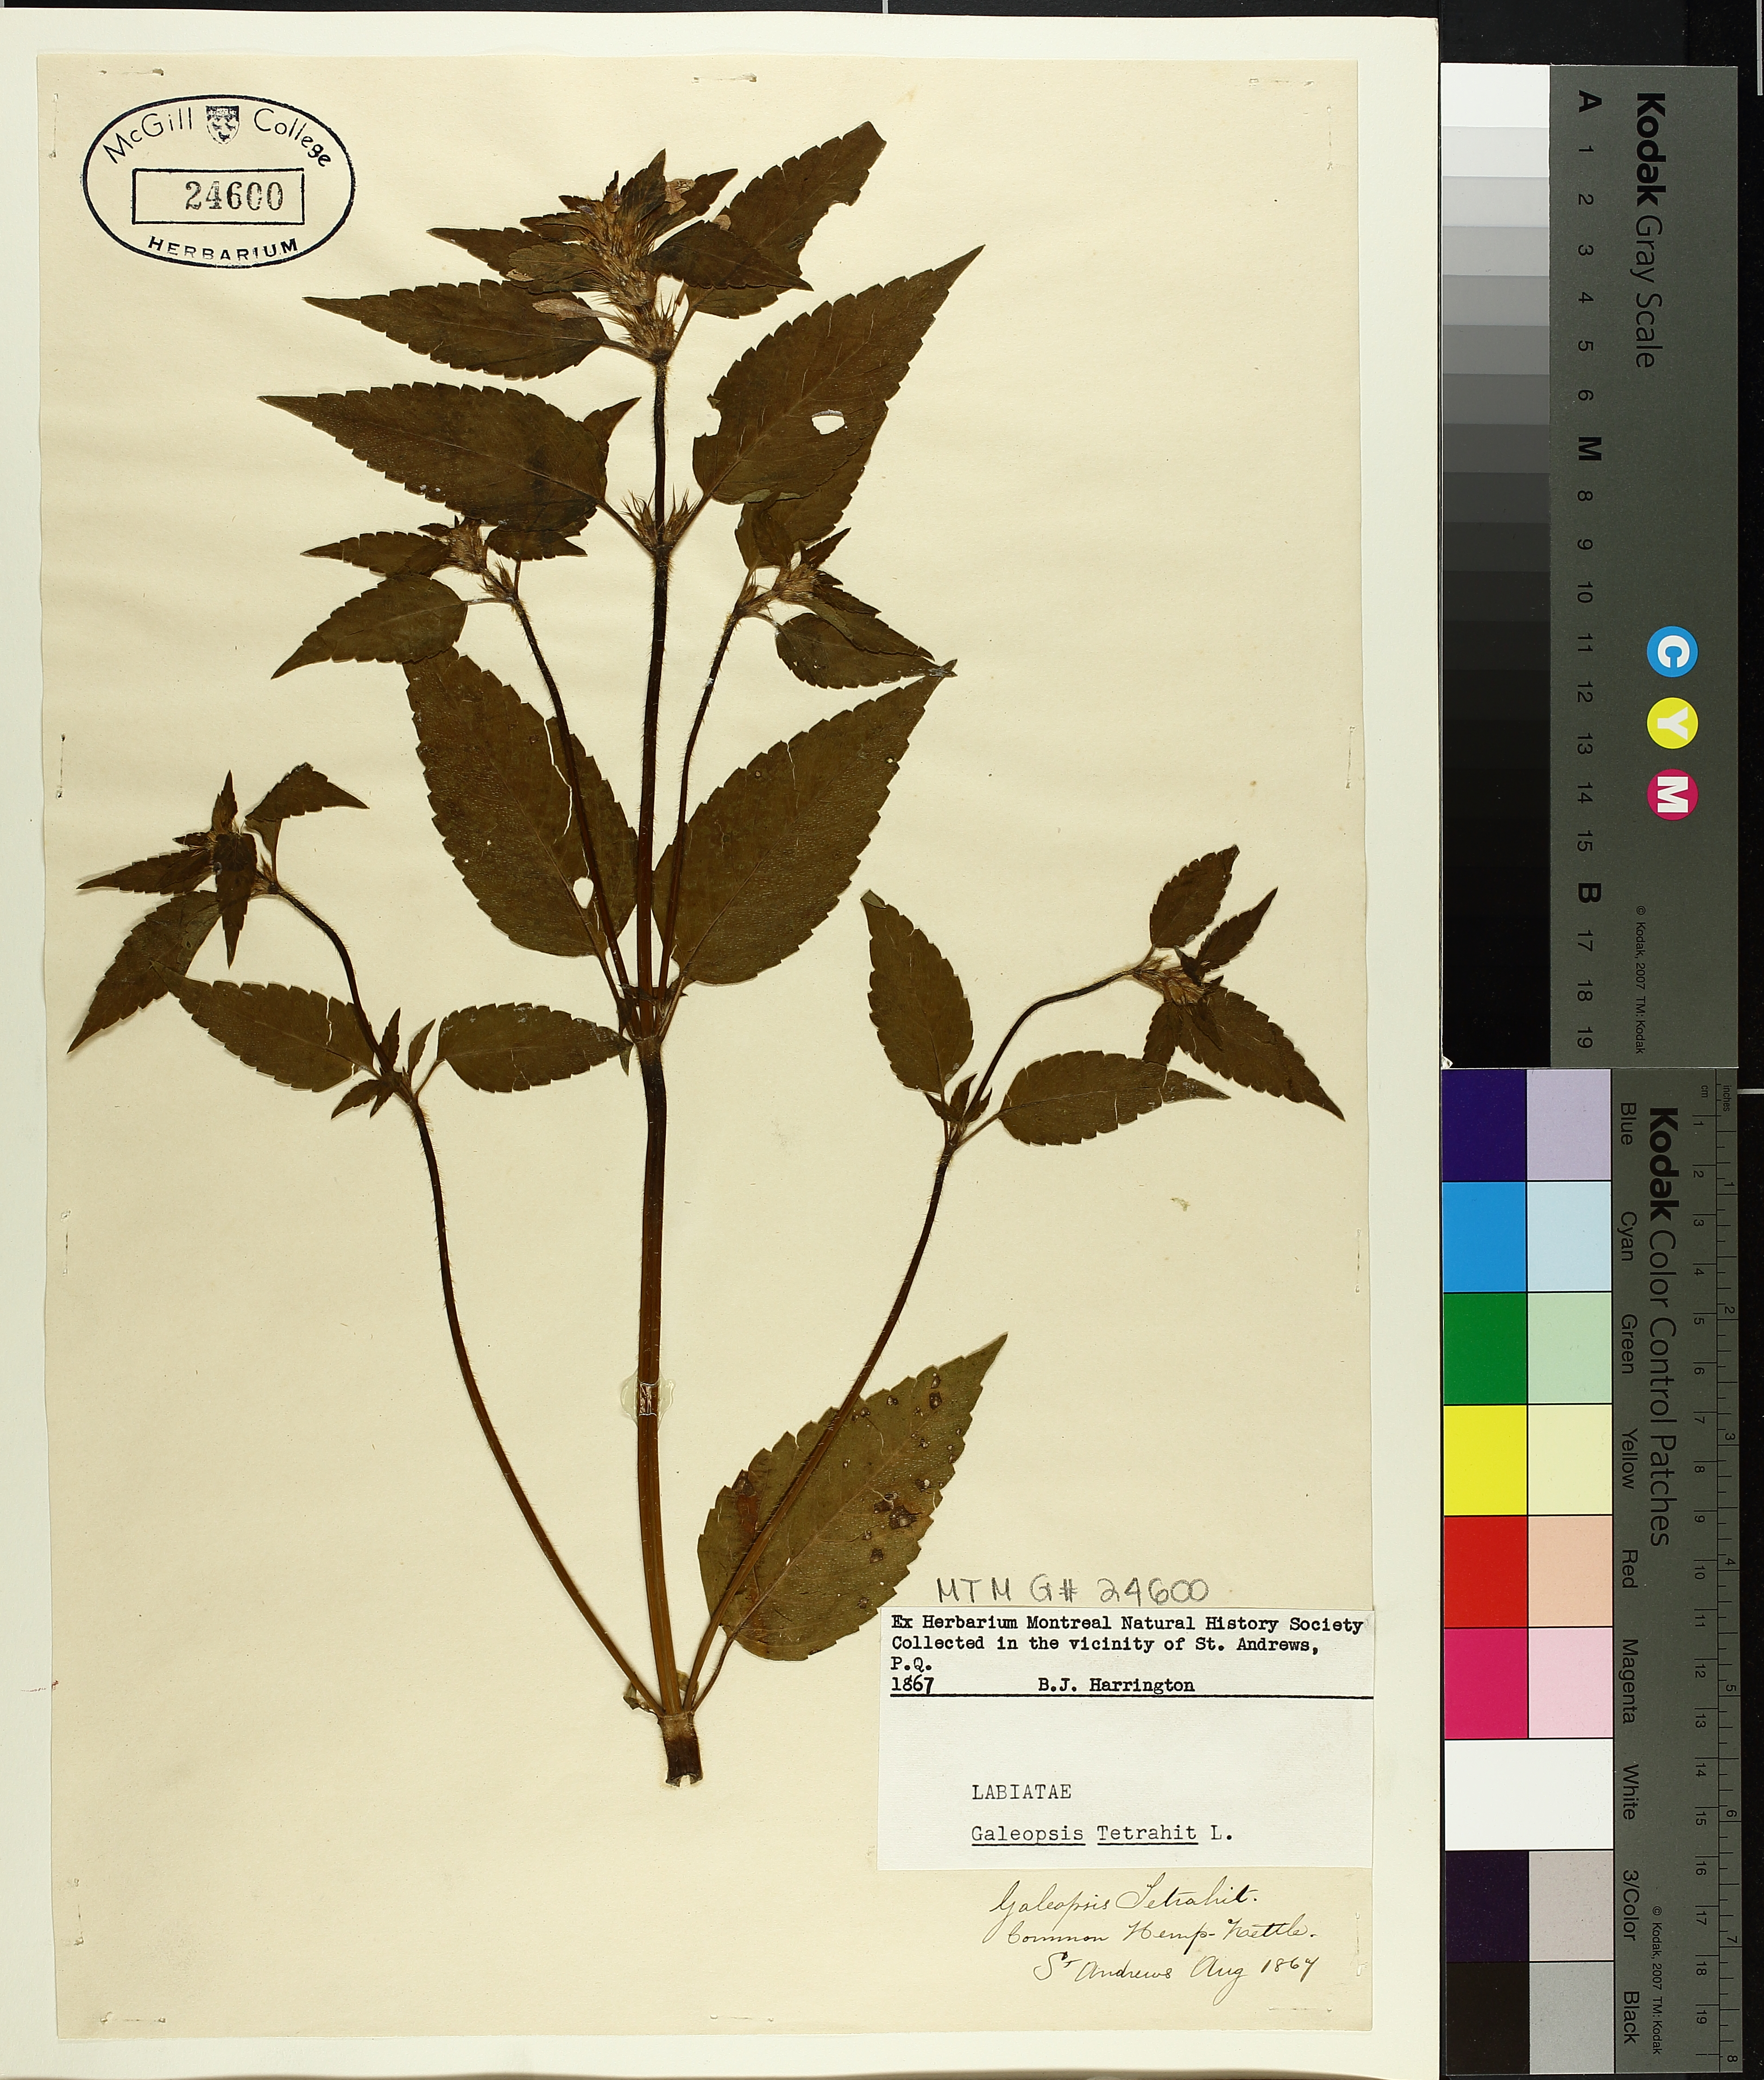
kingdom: Plantae
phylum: Tracheophyta
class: Magnoliopsida
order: Lamiales
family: Lamiaceae
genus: Galeopsis
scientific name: Galeopsis tetrahit
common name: Common hemp-nettle
